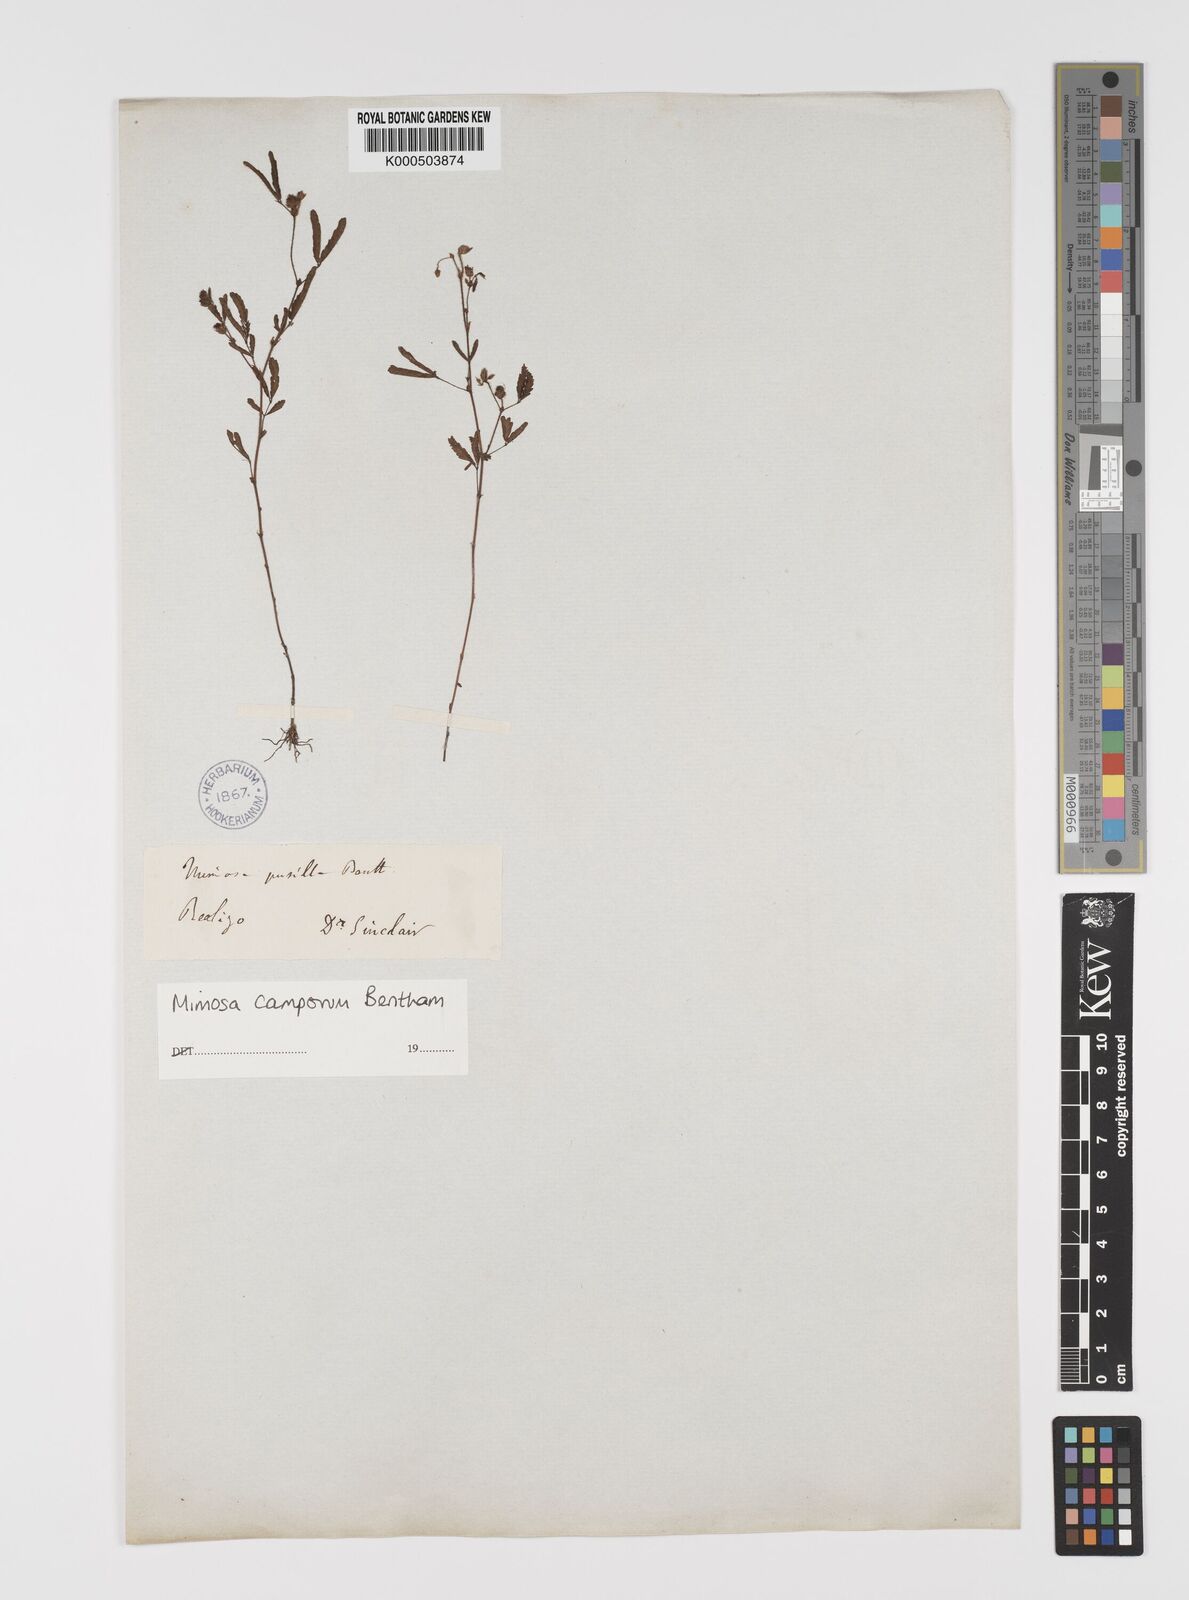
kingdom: Plantae
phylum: Tracheophyta
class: Magnoliopsida
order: Fabales
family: Fabaceae
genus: Mimosa
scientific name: Mimosa camporum
